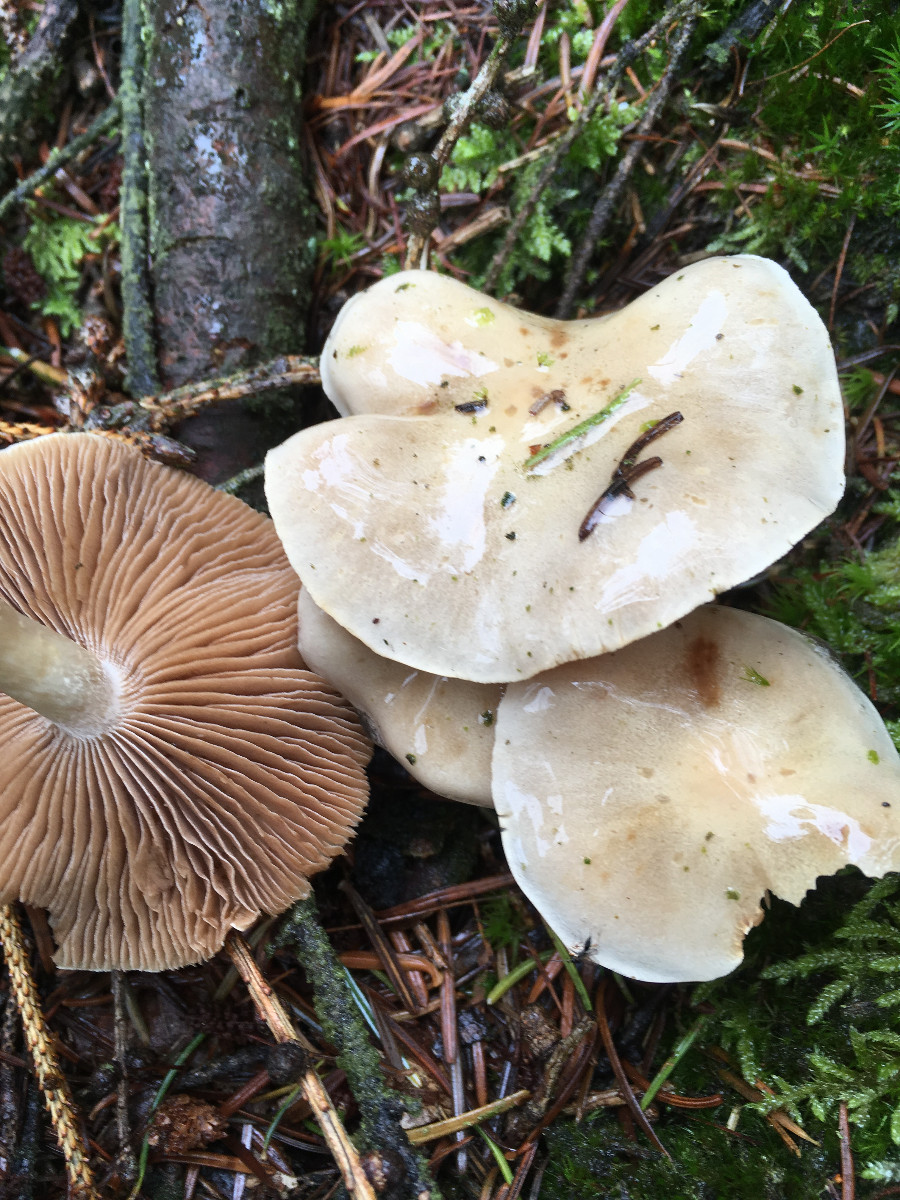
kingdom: Fungi
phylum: Basidiomycota
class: Agaricomycetes
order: Agaricales
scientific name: Agaricales
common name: champignonordenen
